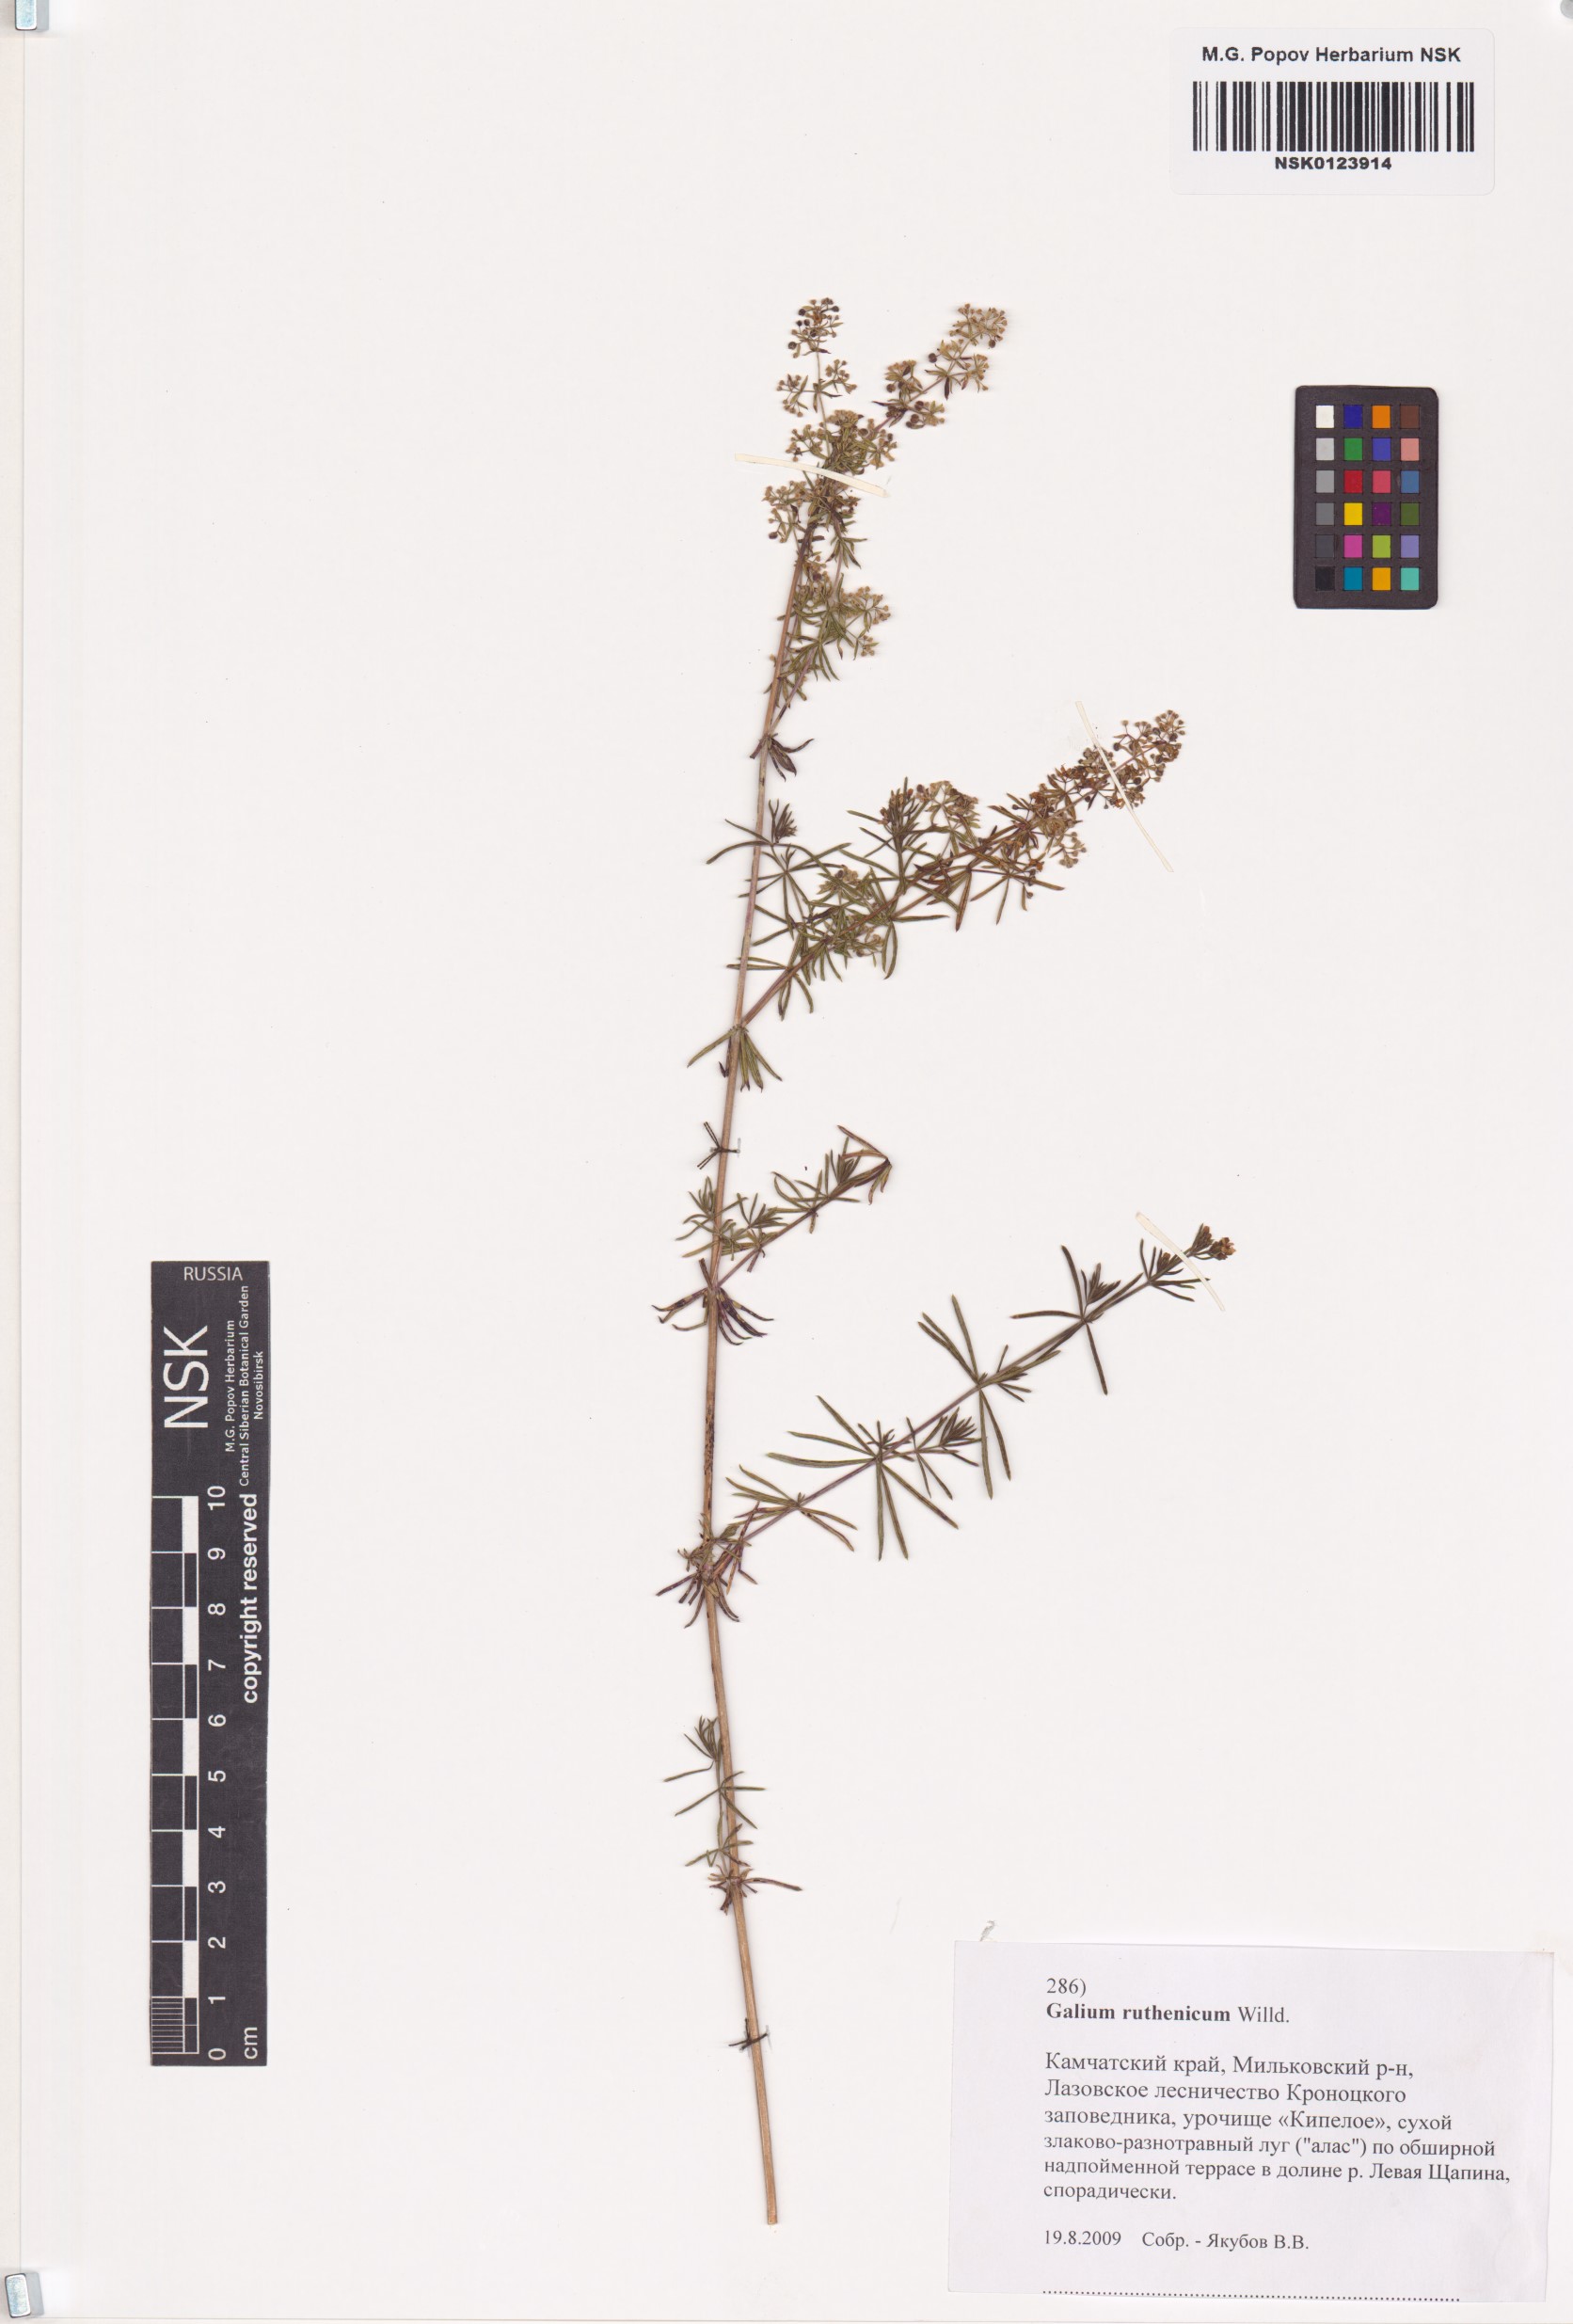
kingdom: Plantae
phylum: Tracheophyta
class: Magnoliopsida
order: Gentianales
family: Rubiaceae
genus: Galium
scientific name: Galium verum
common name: Lady's bedstraw
